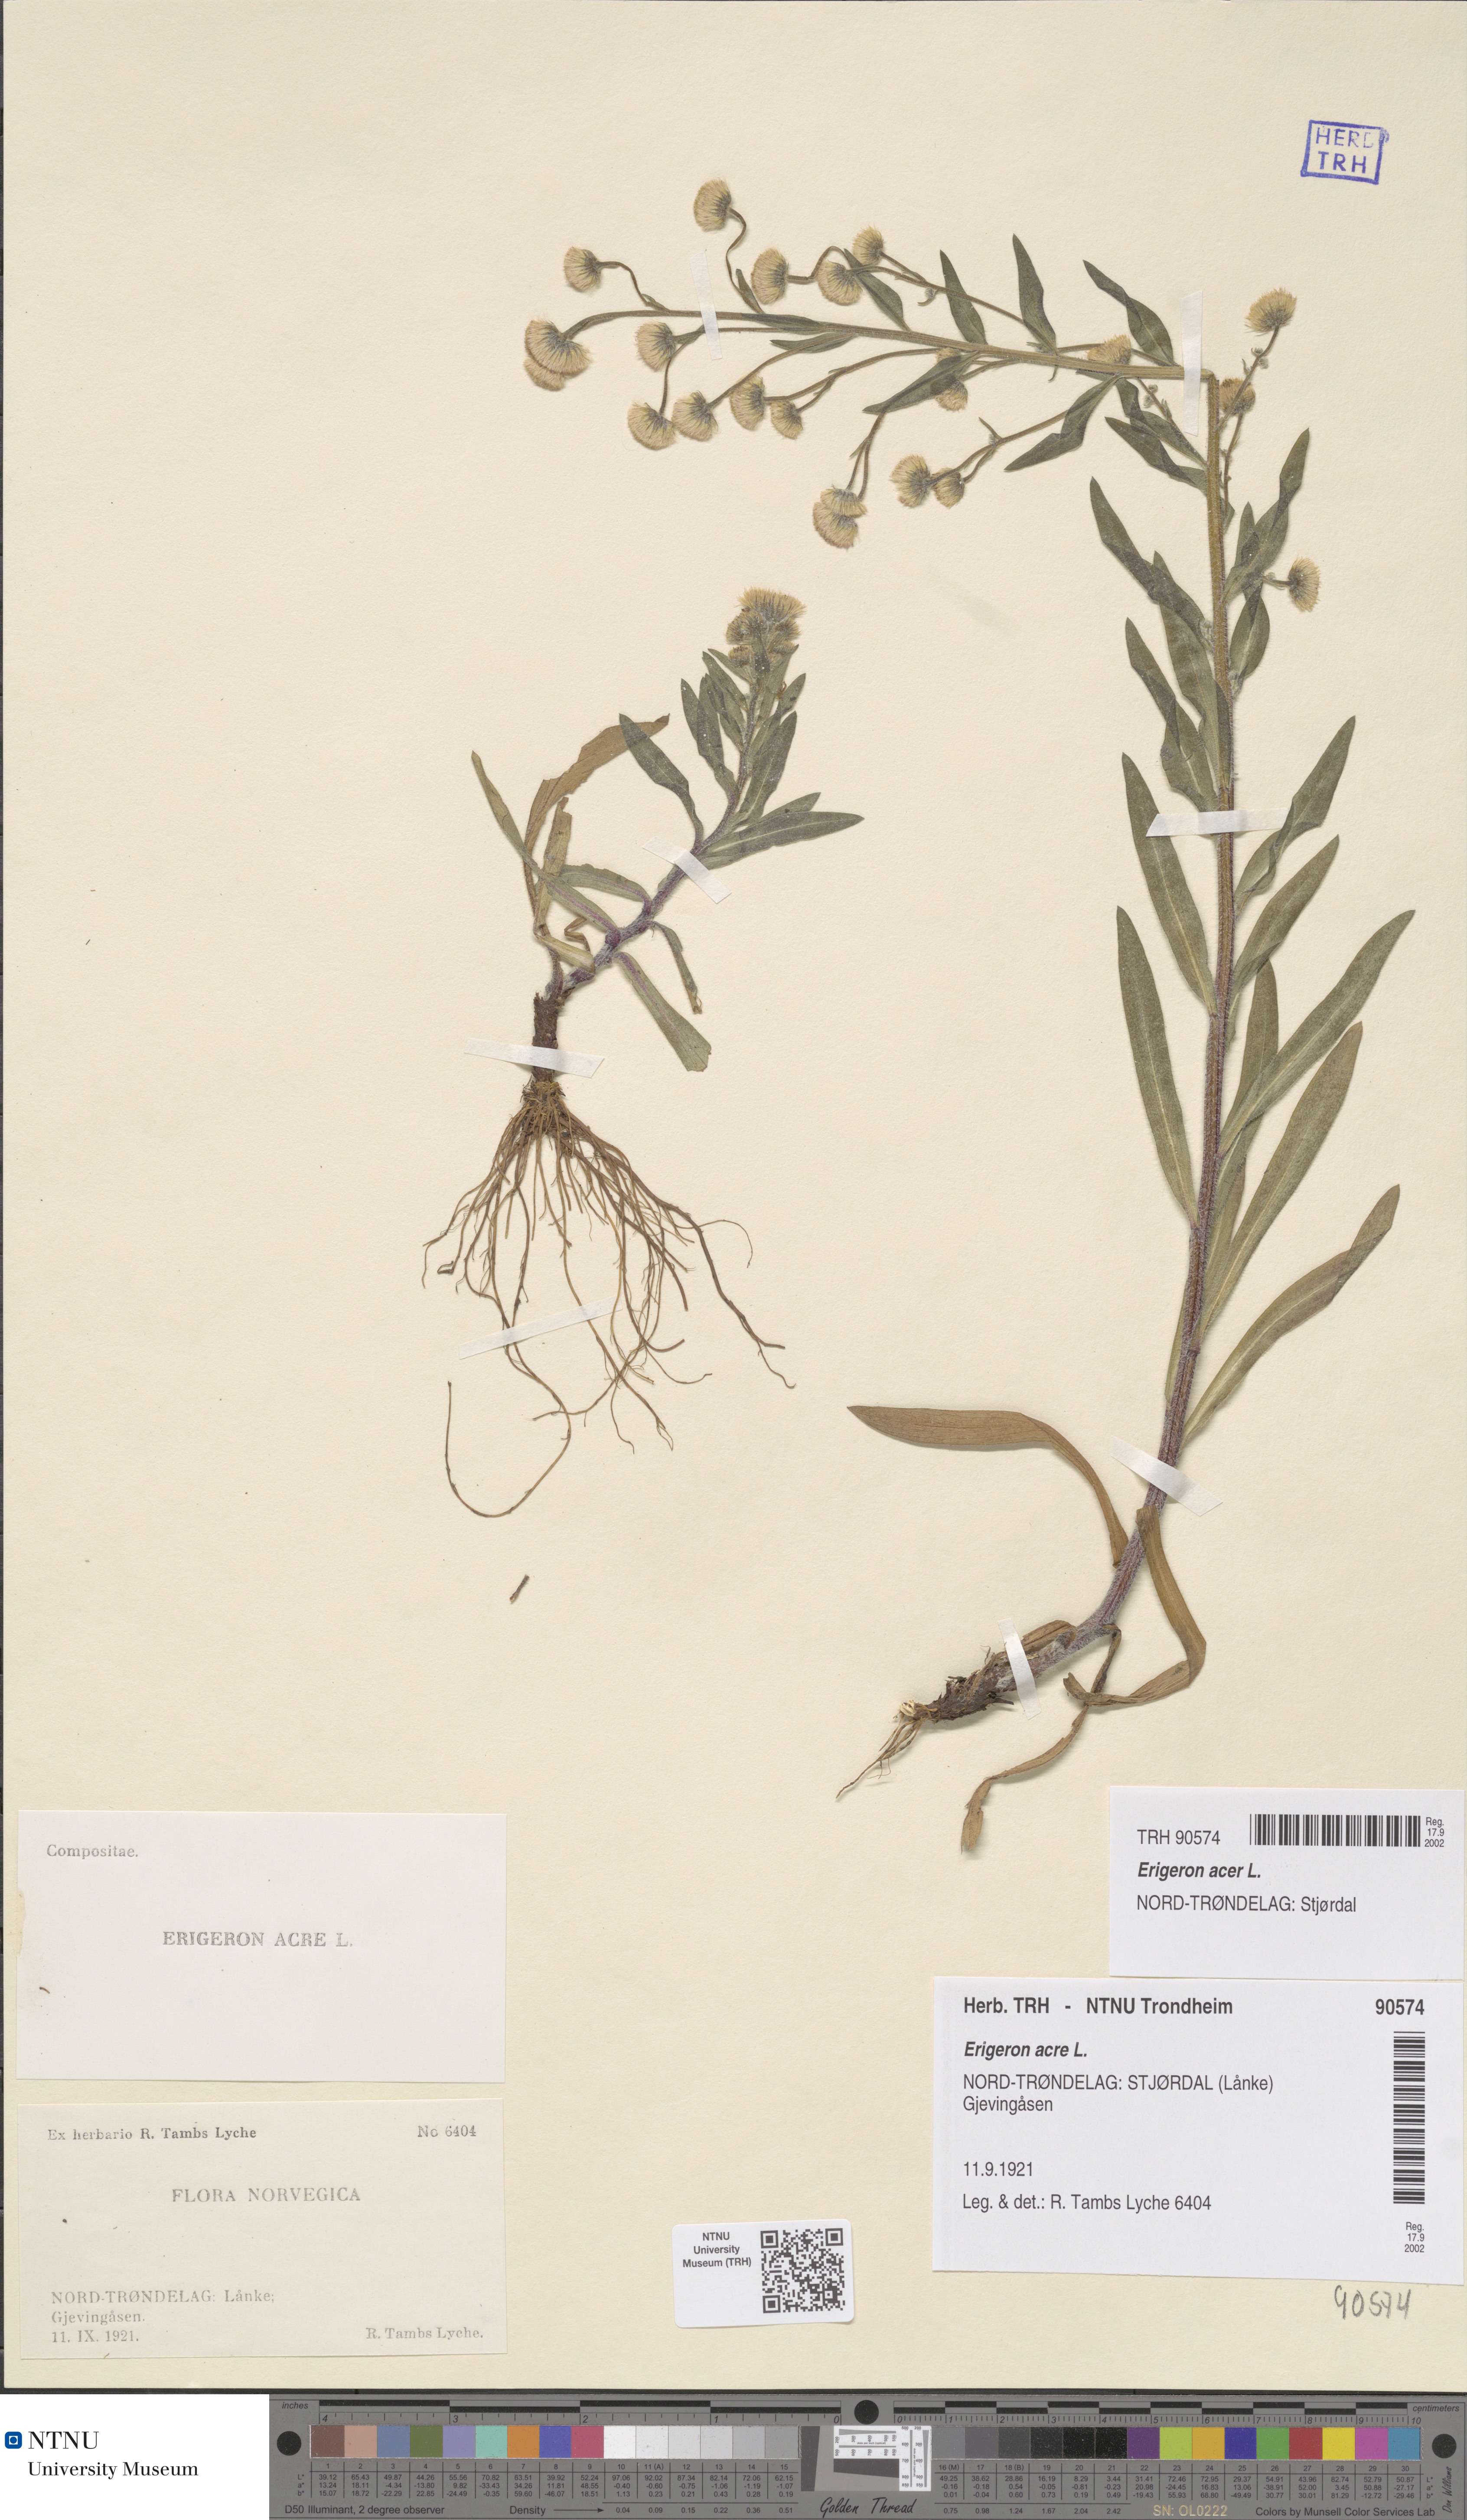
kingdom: Plantae
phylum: Tracheophyta
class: Magnoliopsida
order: Asterales
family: Asteraceae
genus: Erigeron
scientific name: Erigeron acris
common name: Blue fleabane
